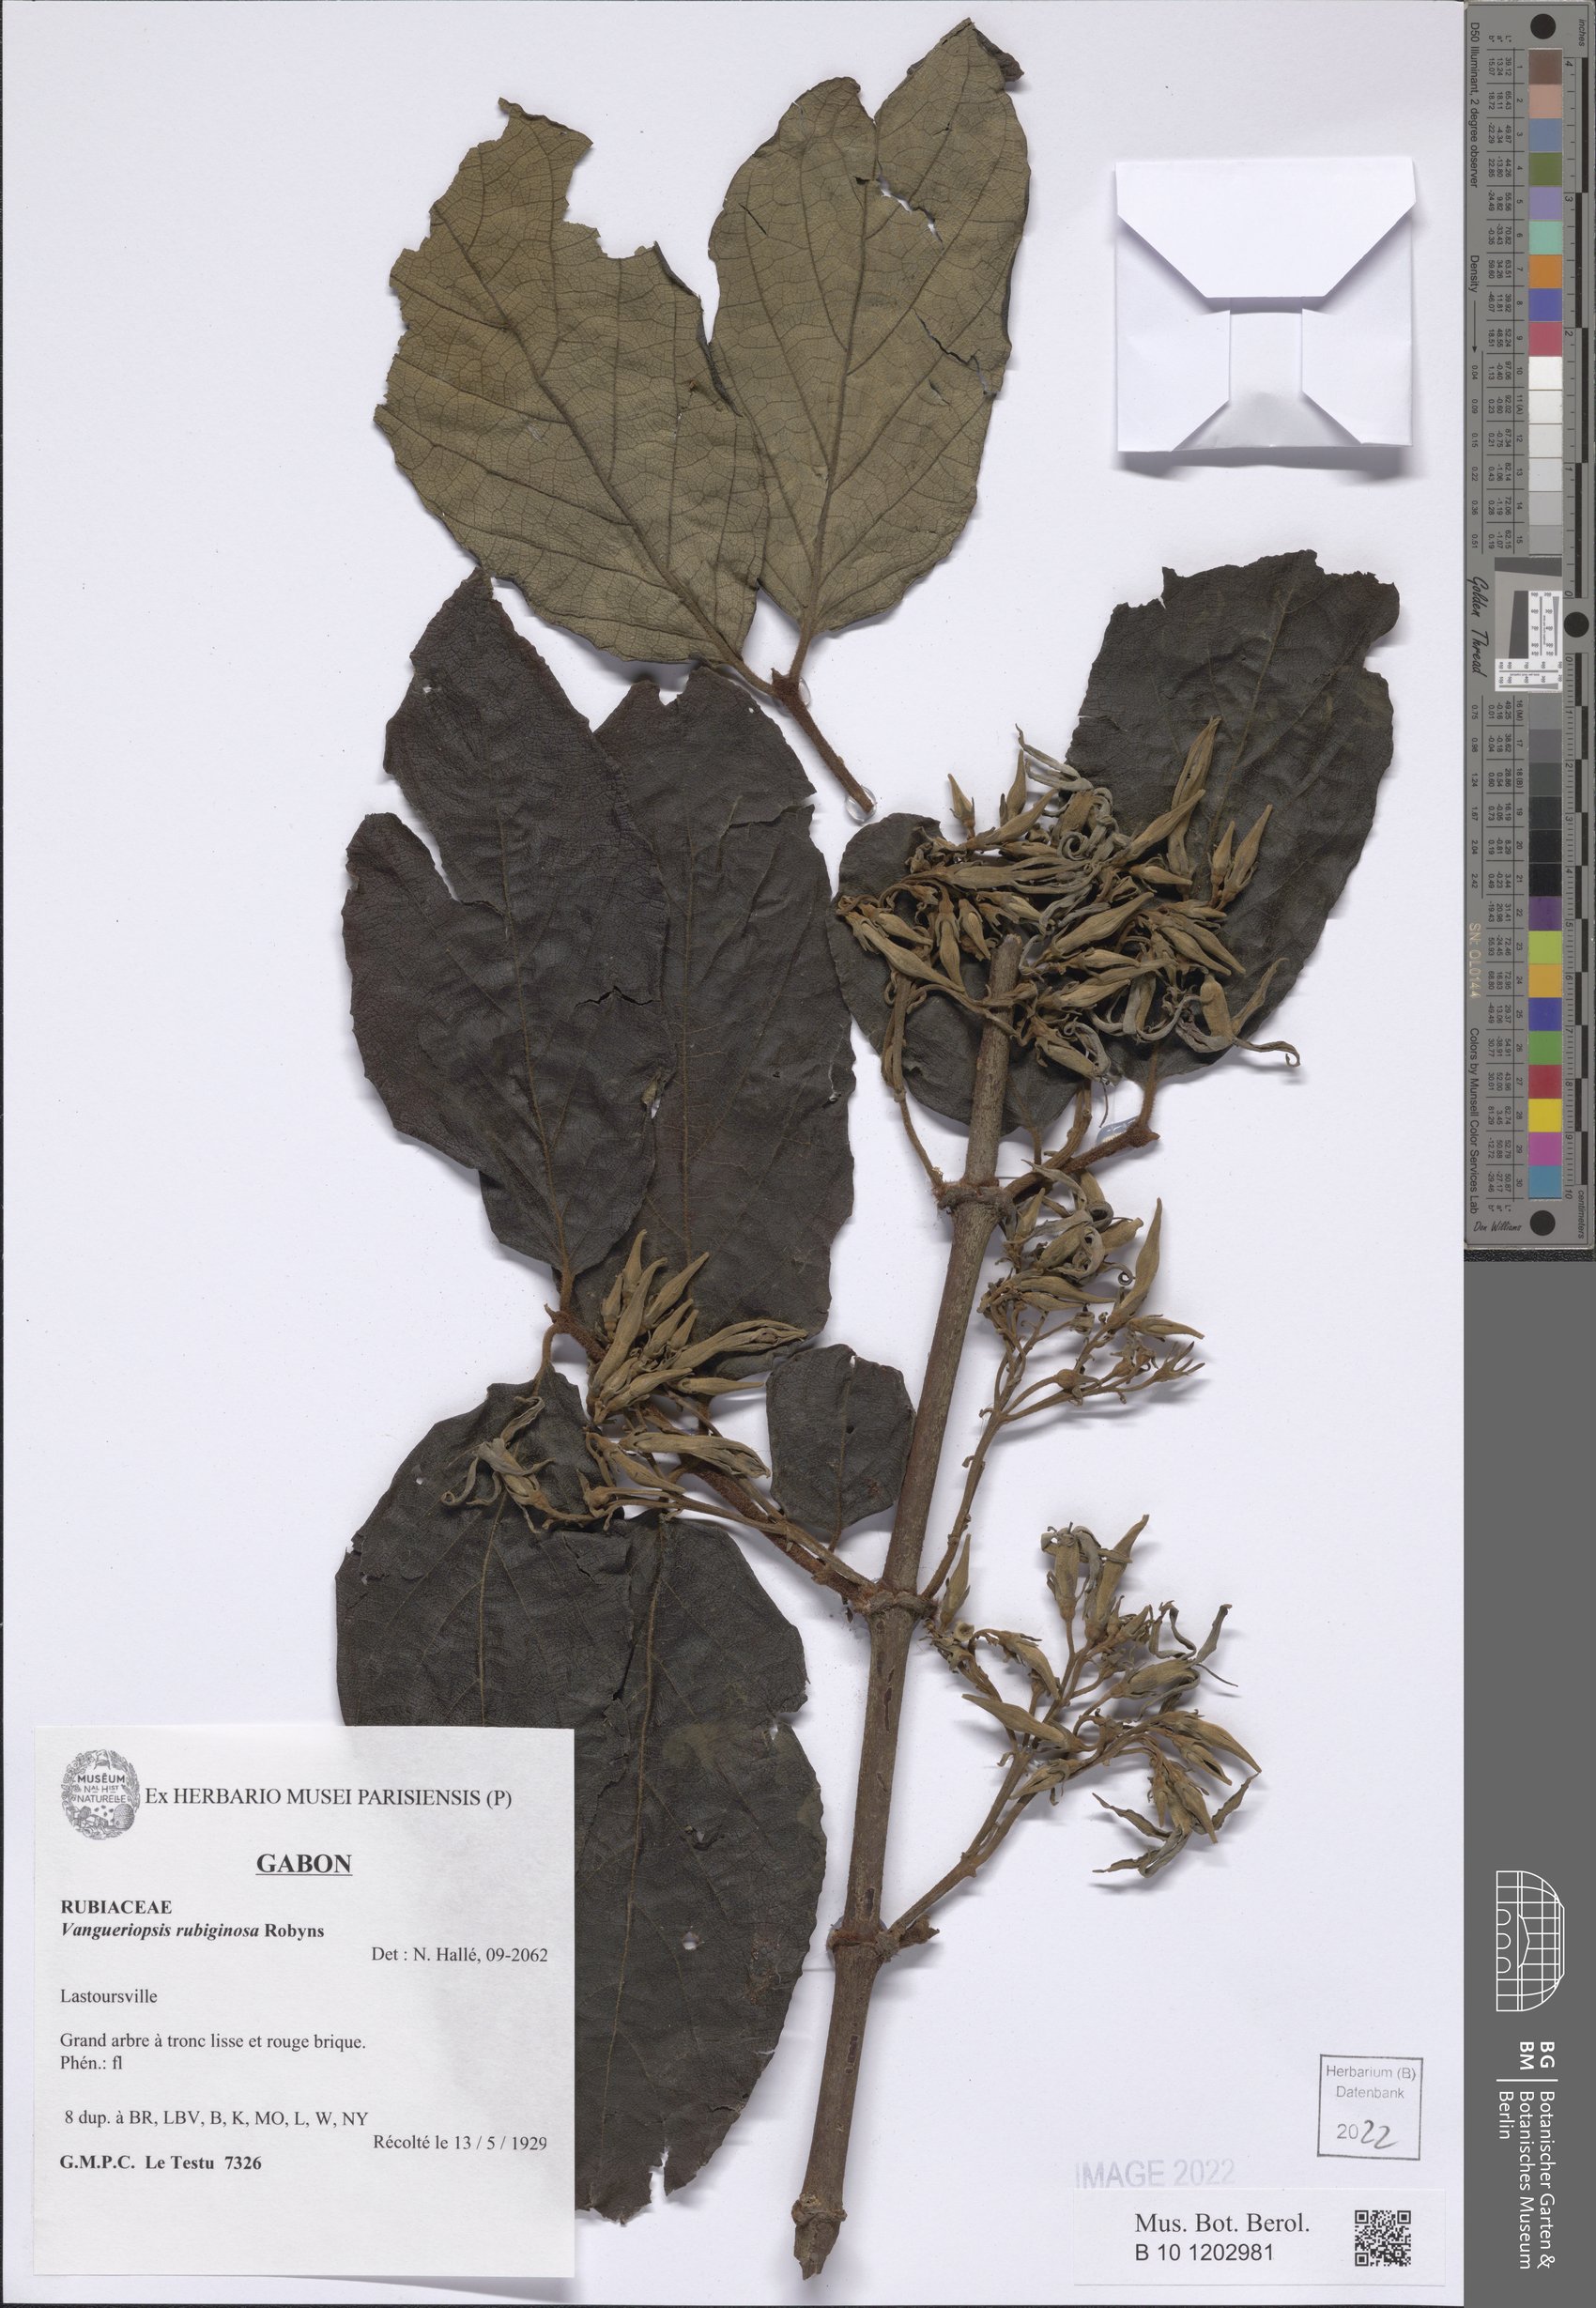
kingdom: Plantae
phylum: Tracheophyta
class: Magnoliopsida
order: Gentianales
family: Rubiaceae
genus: Vangueriopsis
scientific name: Vangueriopsis rubiginosa
